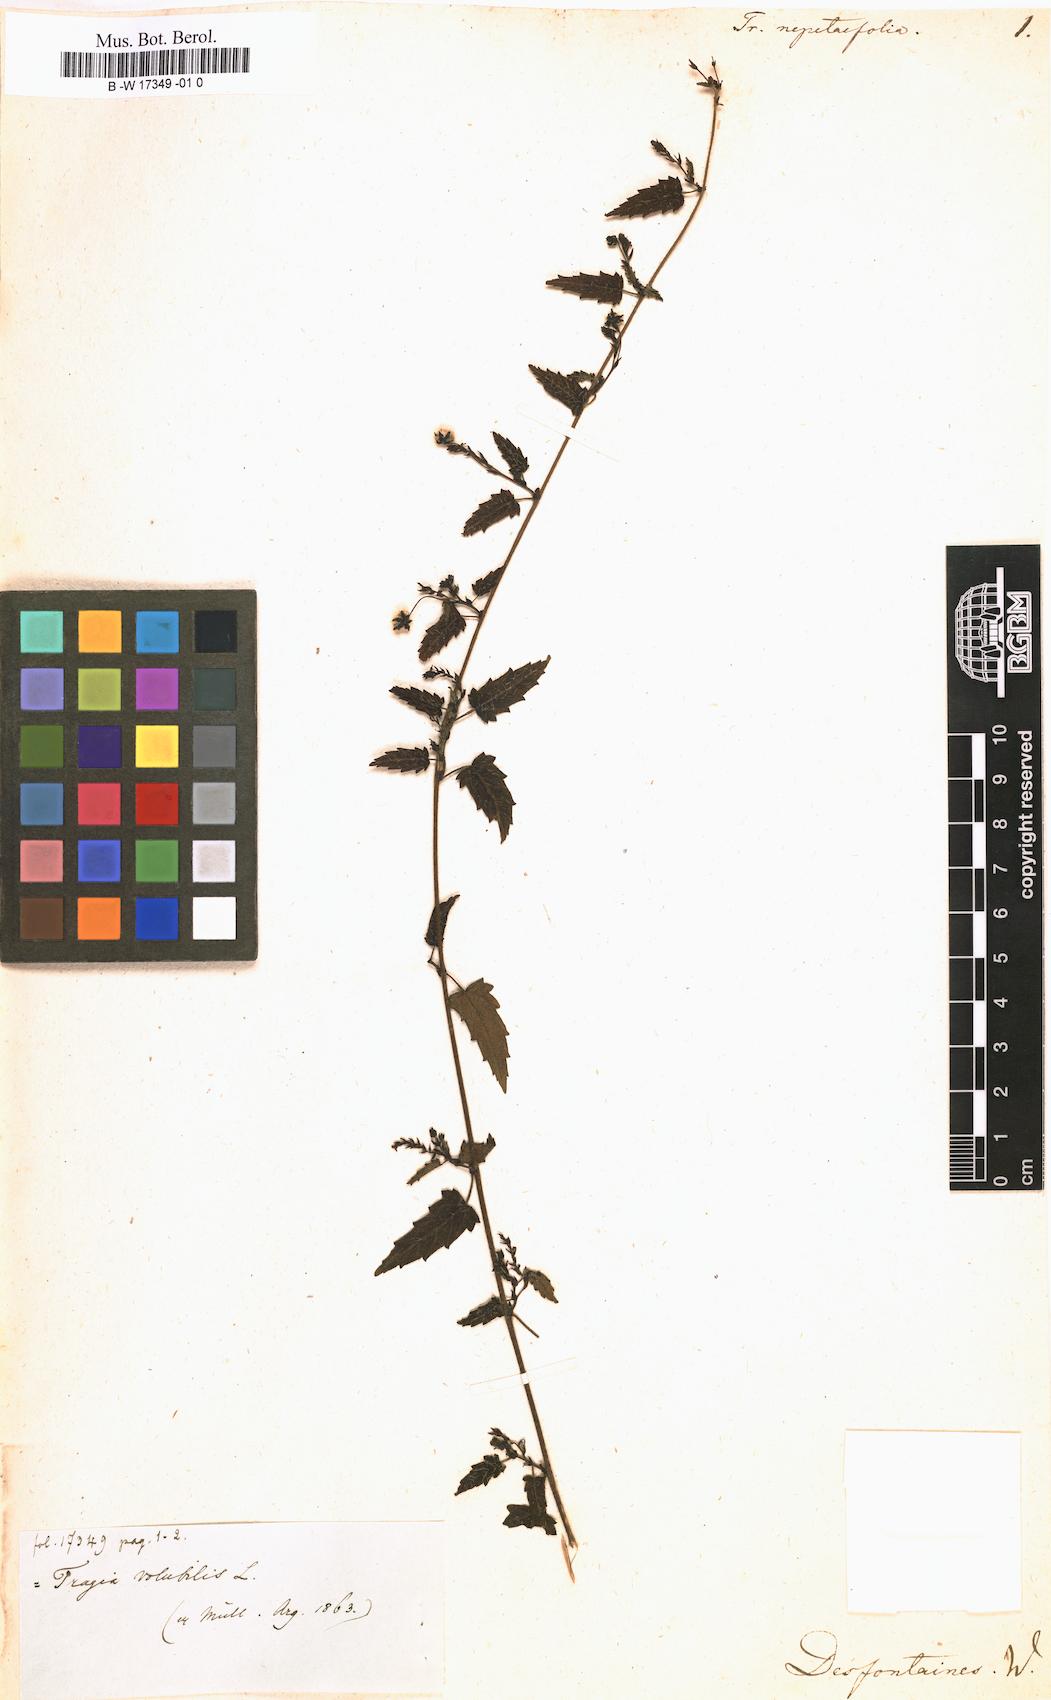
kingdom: Plantae
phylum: Tracheophyta
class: Magnoliopsida
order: Malpighiales
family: Euphorbiaceae
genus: Tragia
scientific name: Tragia nepetifolia
